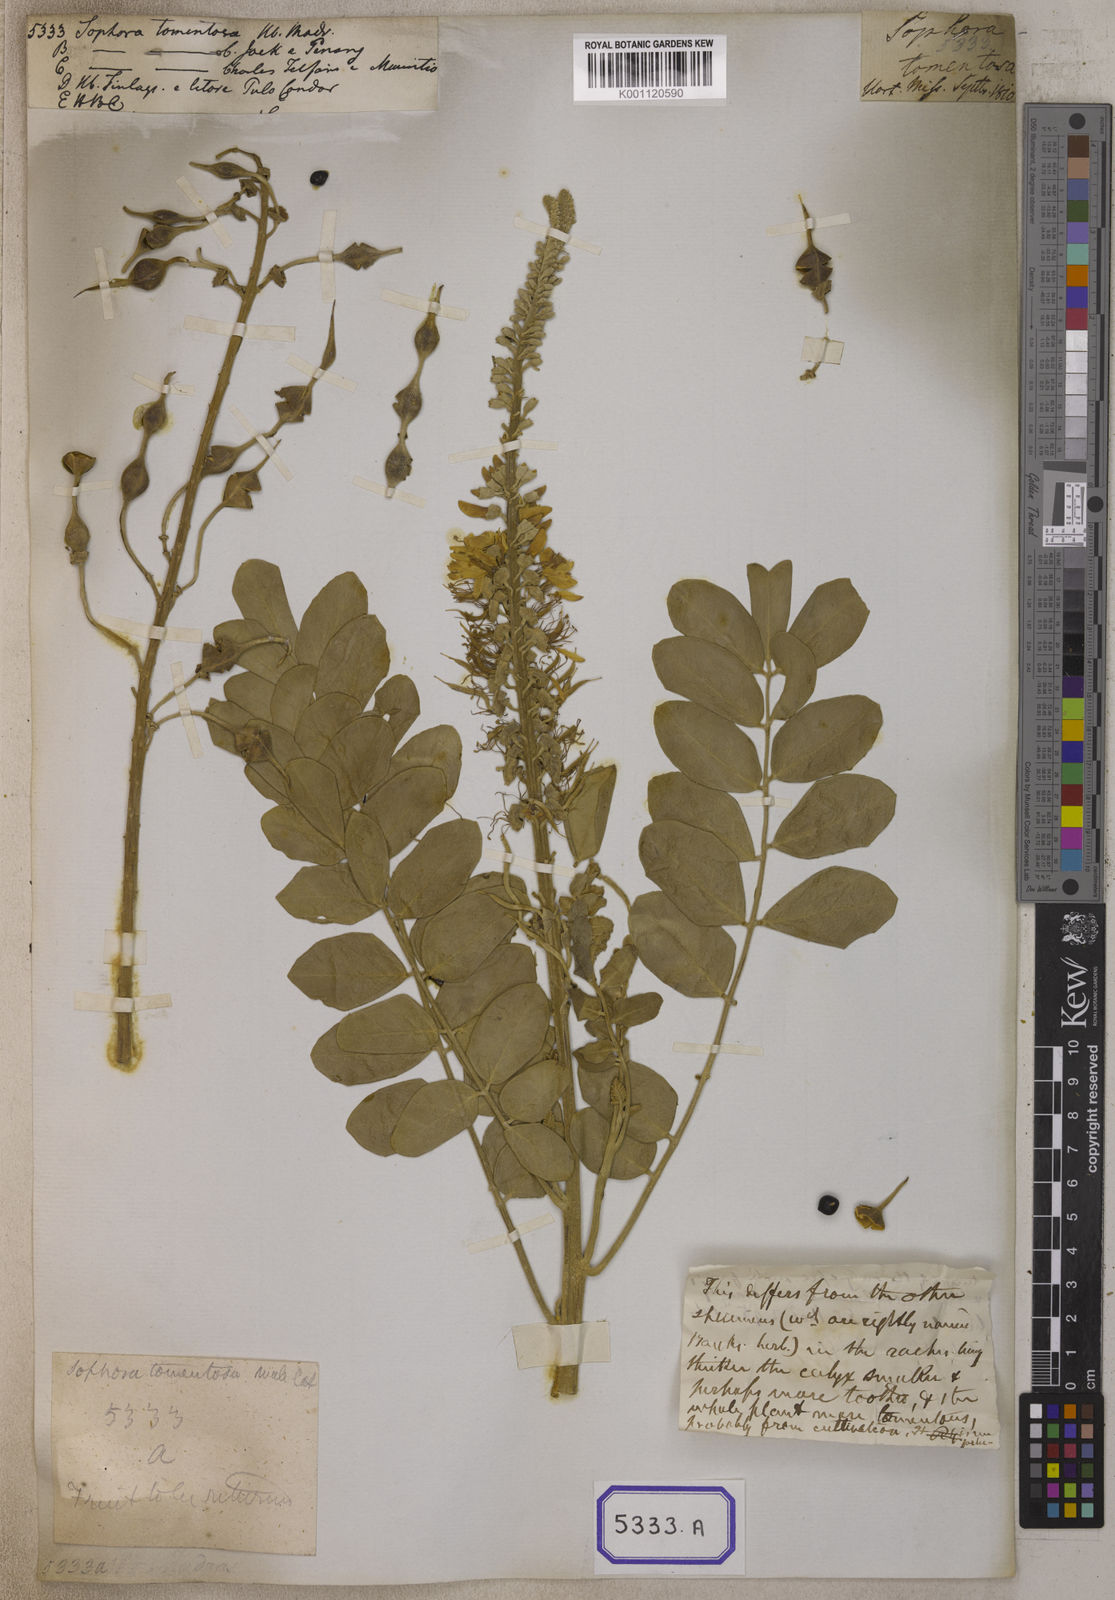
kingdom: Plantae
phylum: Tracheophyta
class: Magnoliopsida
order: Fabales
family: Fabaceae
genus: Sophora
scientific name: Sophora tomentosa
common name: Yellow necklacepod
